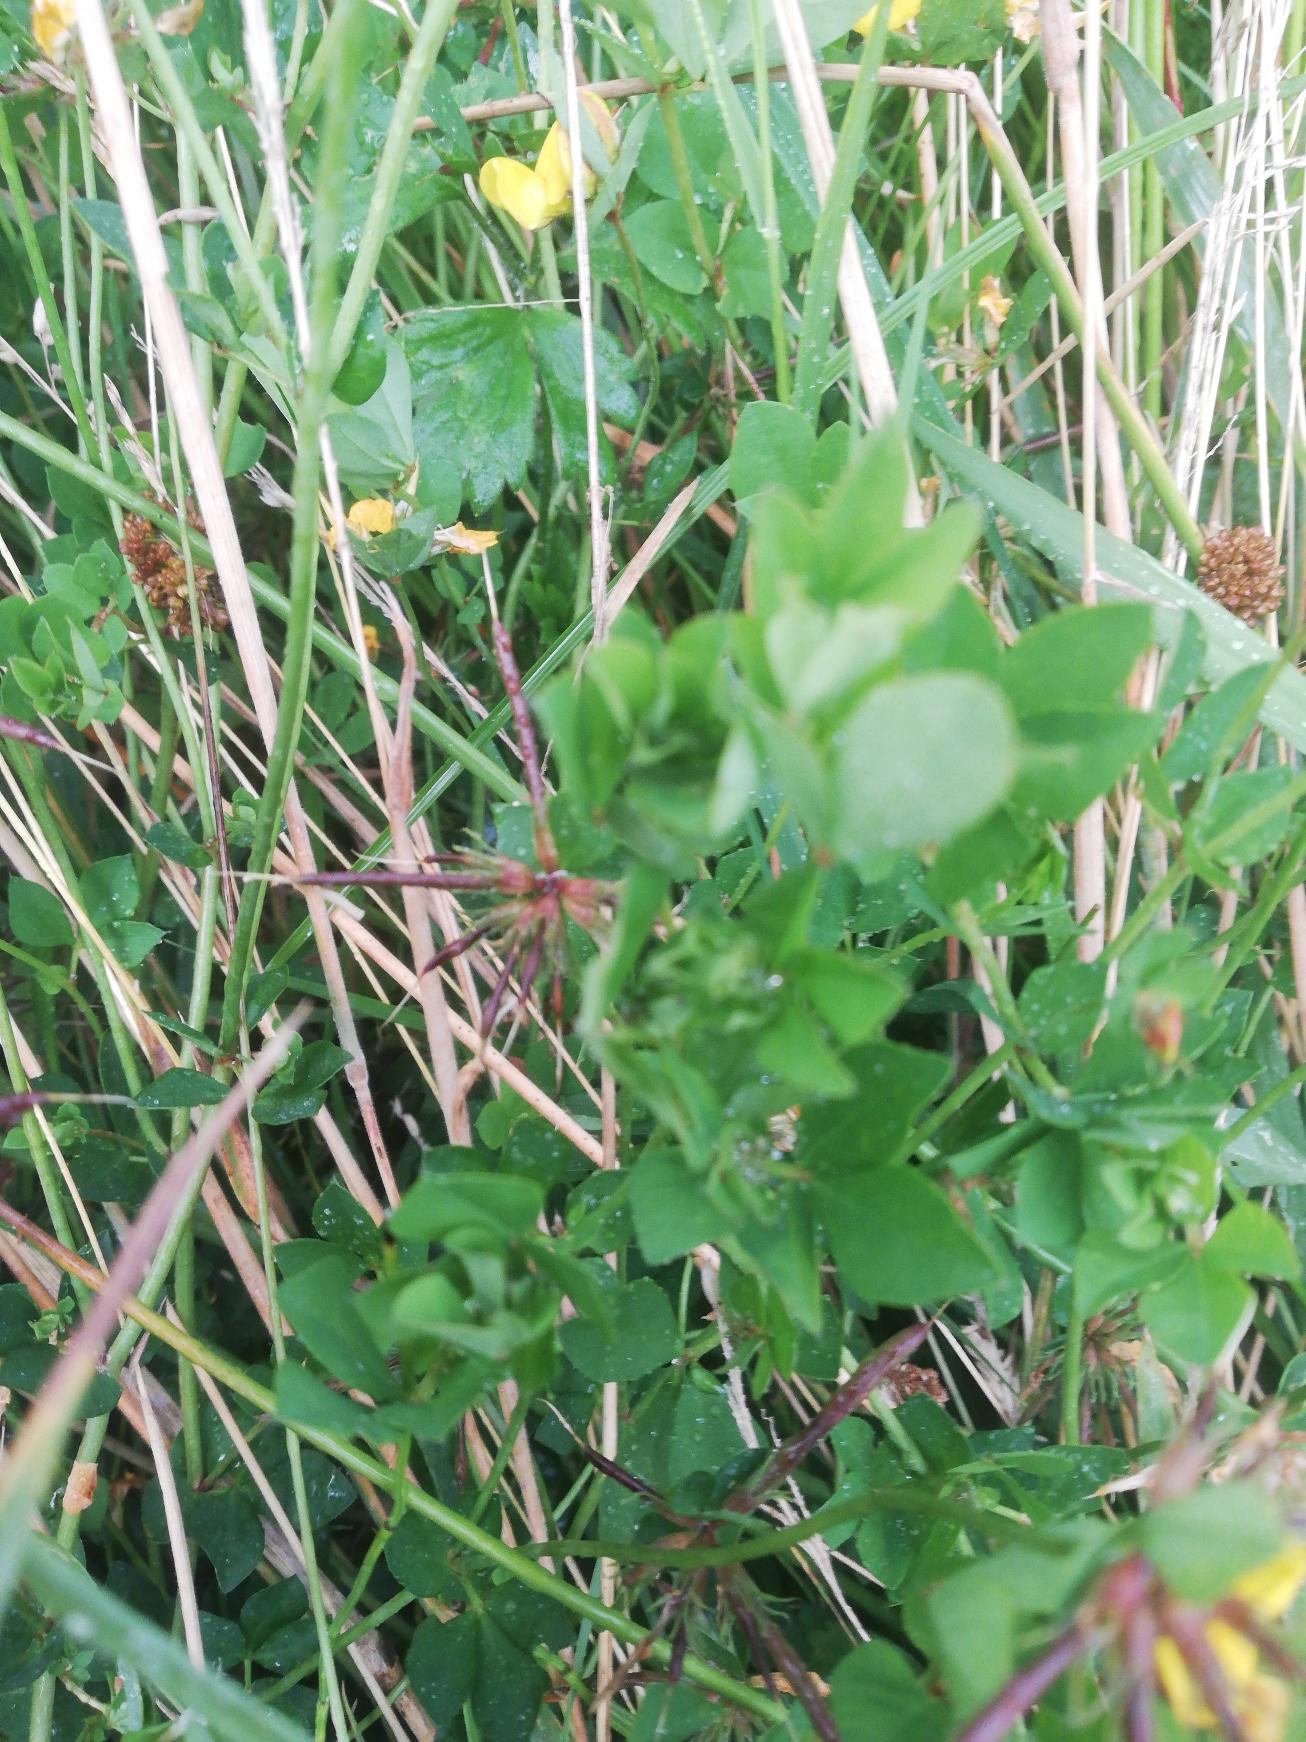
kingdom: Plantae
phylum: Tracheophyta
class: Magnoliopsida
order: Fabales
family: Fabaceae
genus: Lotus
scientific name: Lotus pedunculatus
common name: Sump-kællingetand
